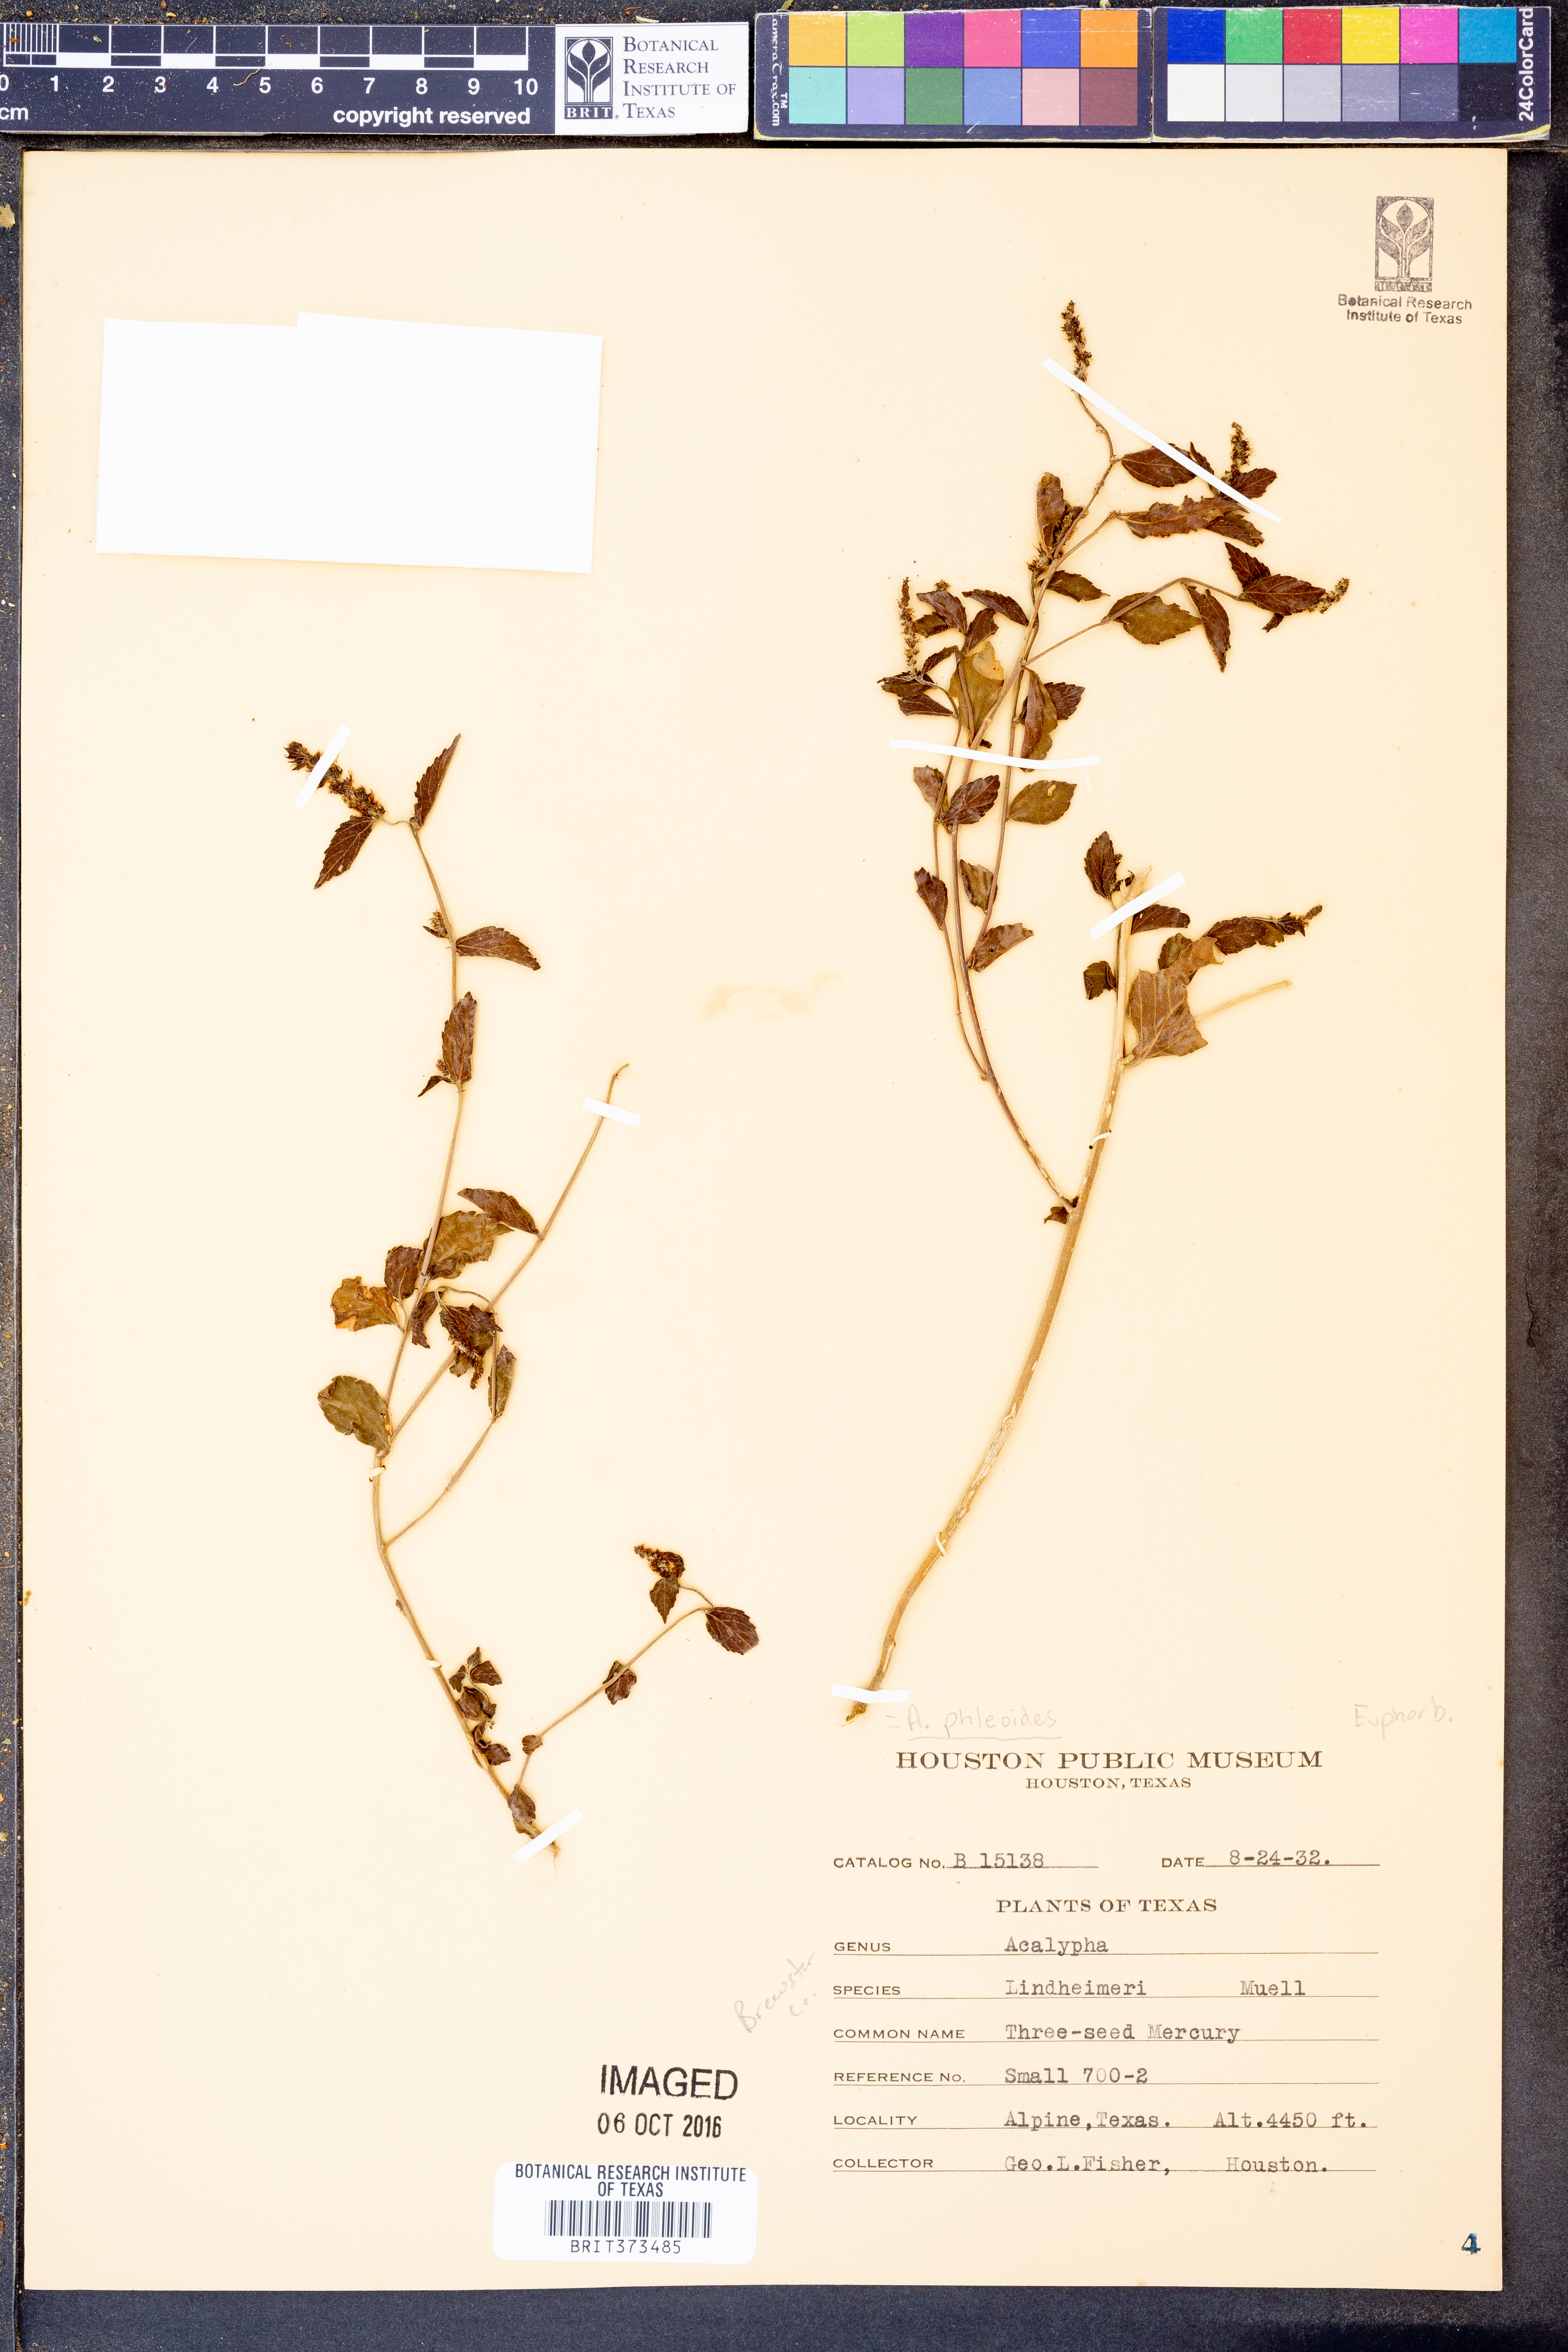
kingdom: Plantae
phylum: Tracheophyta
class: Magnoliopsida
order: Malpighiales
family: Euphorbiaceae
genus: Acalypha
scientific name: Acalypha phleoides
